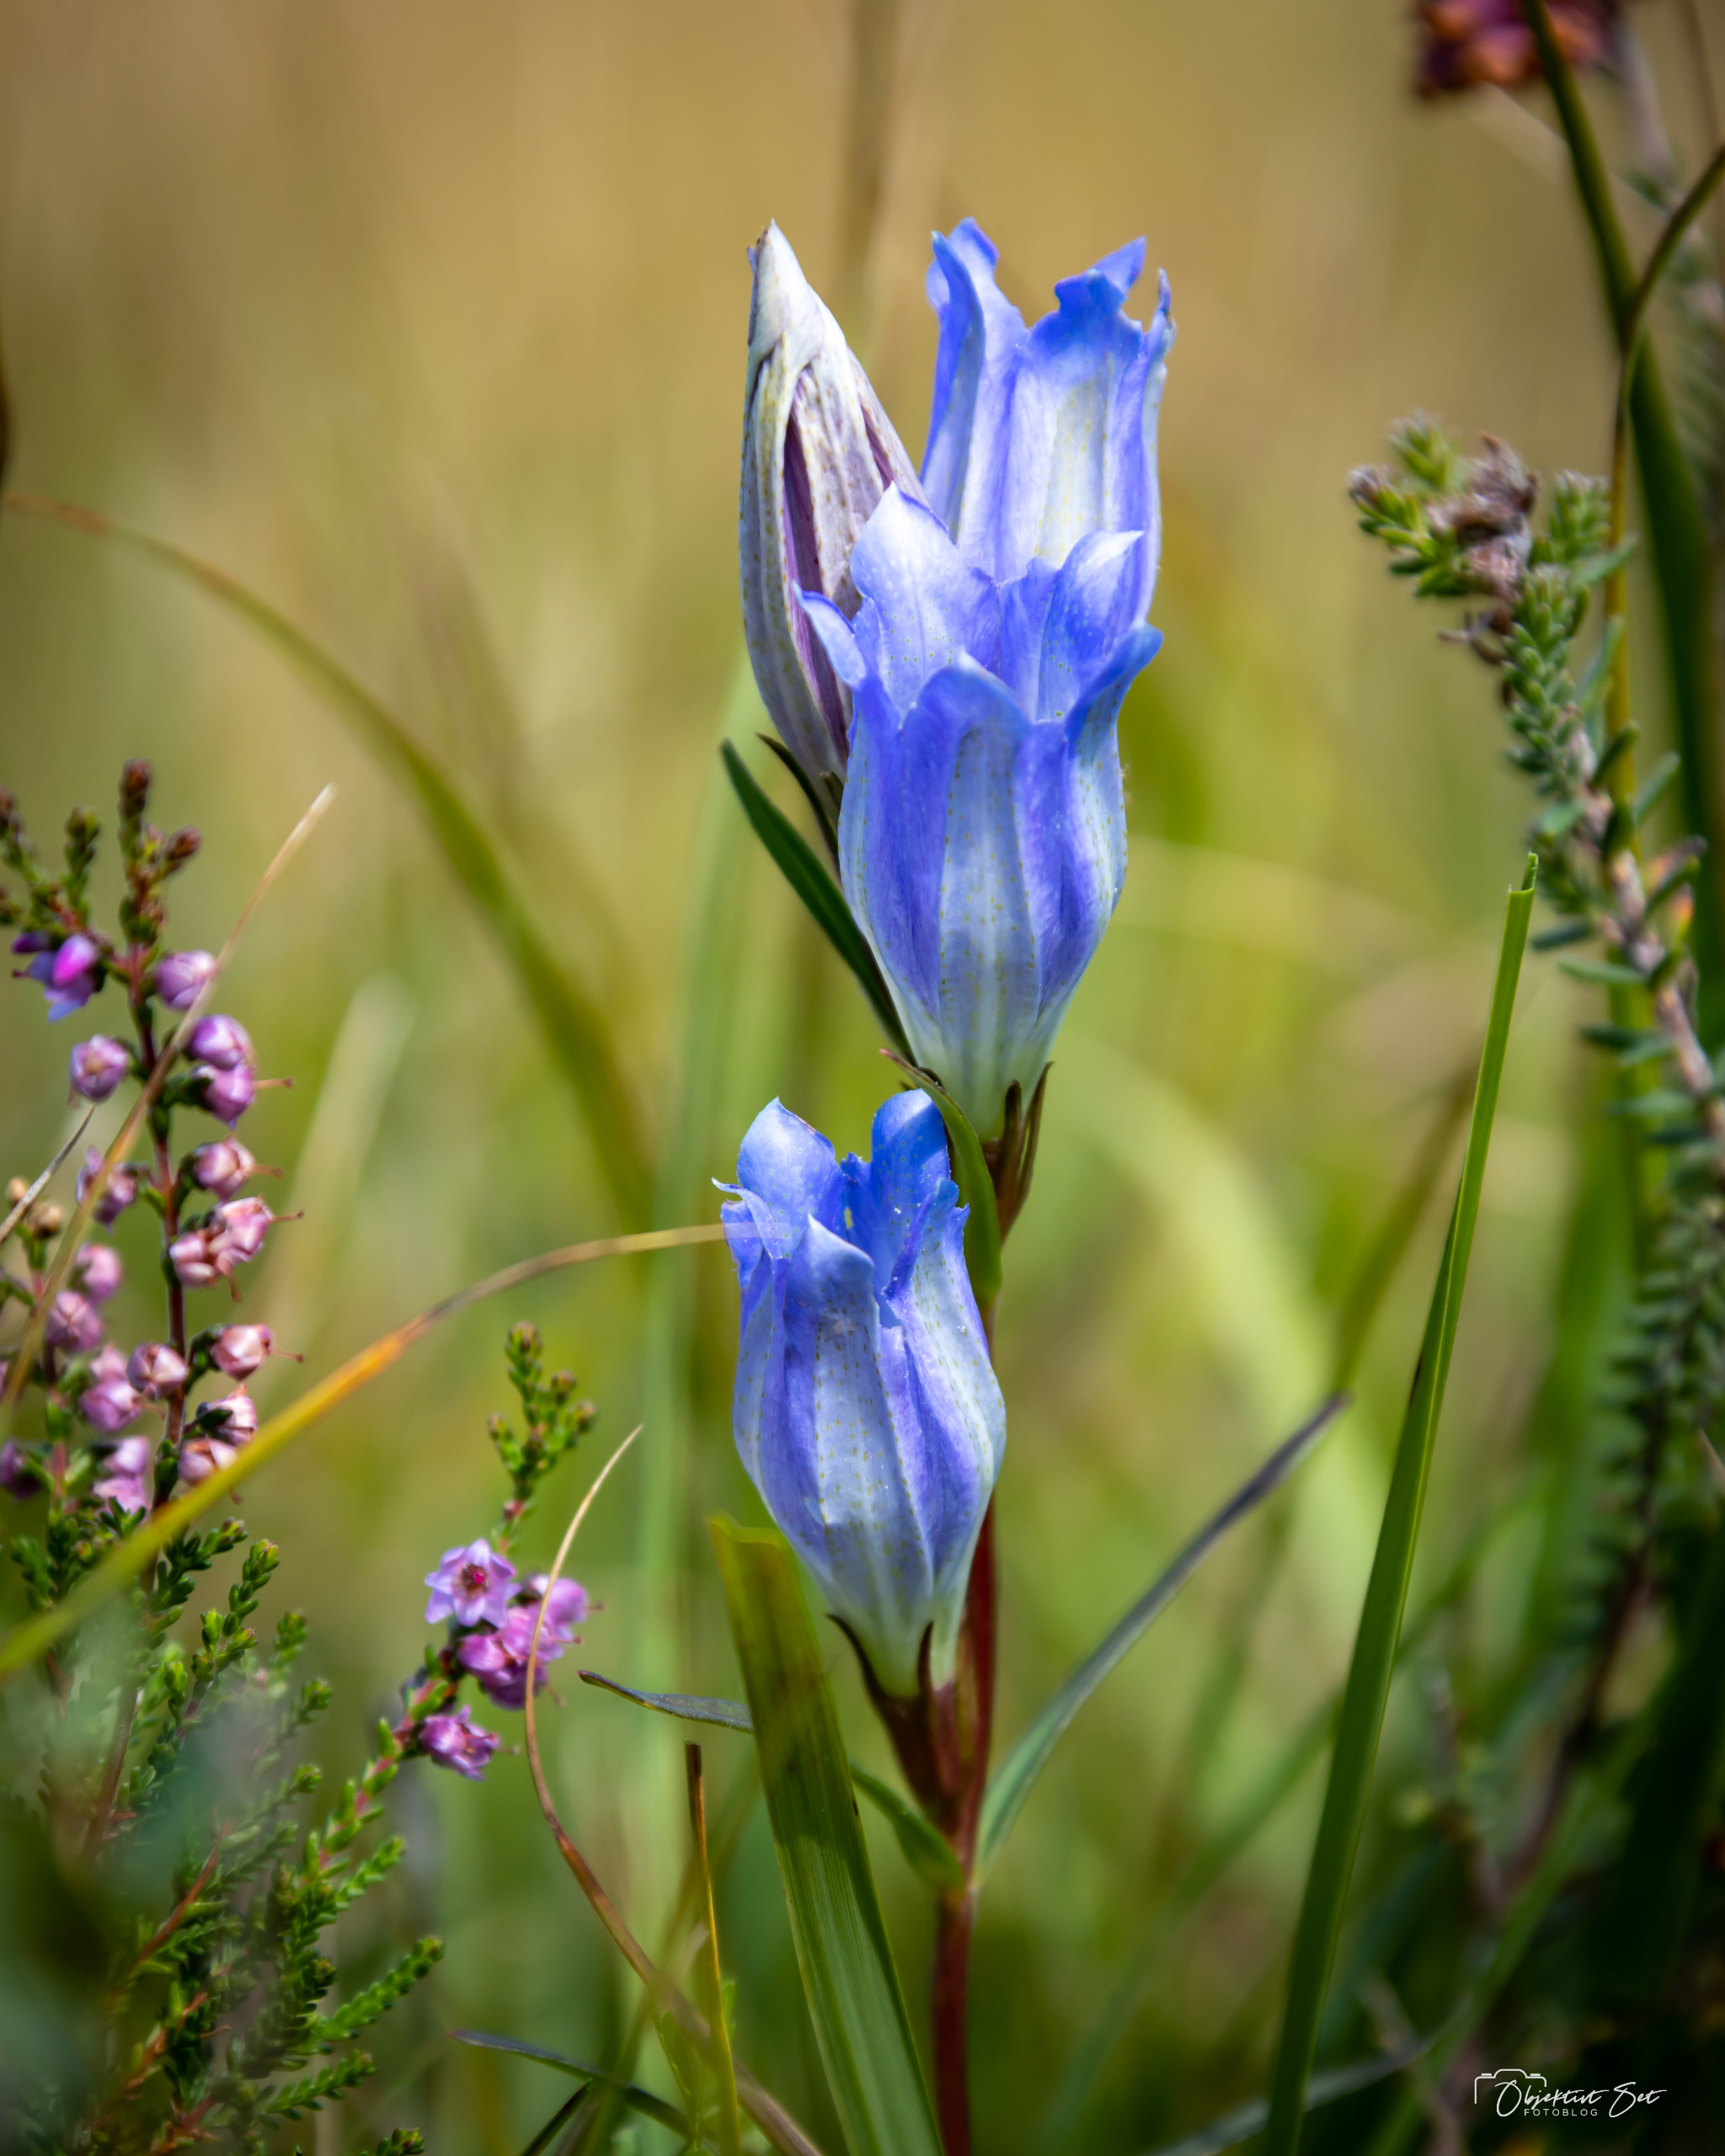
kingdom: Plantae
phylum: Tracheophyta
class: Magnoliopsida
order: Gentianales
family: Gentianaceae
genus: Gentiana
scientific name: Gentiana pneumonanthe
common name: Klokke-ensian
